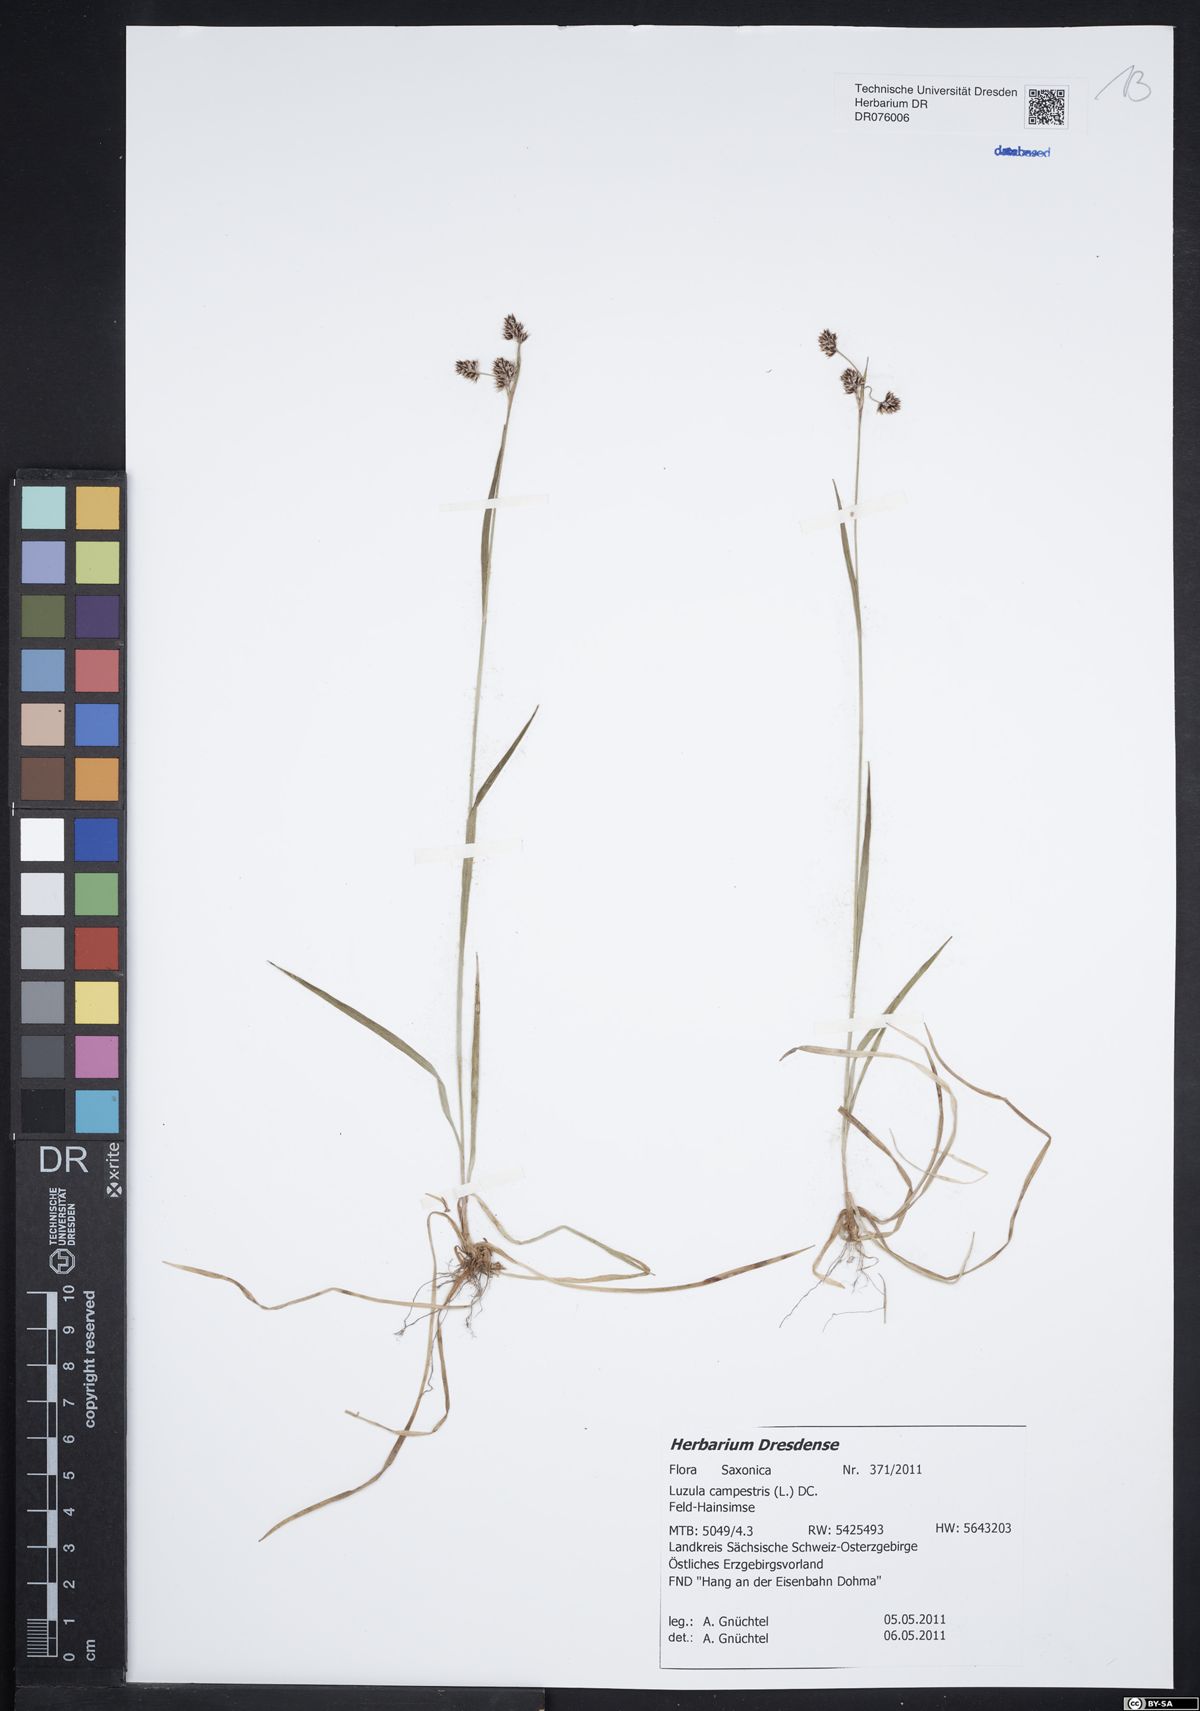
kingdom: Plantae
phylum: Tracheophyta
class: Liliopsida
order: Poales
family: Juncaceae
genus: Luzula
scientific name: Luzula campestris
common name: Field wood-rush
